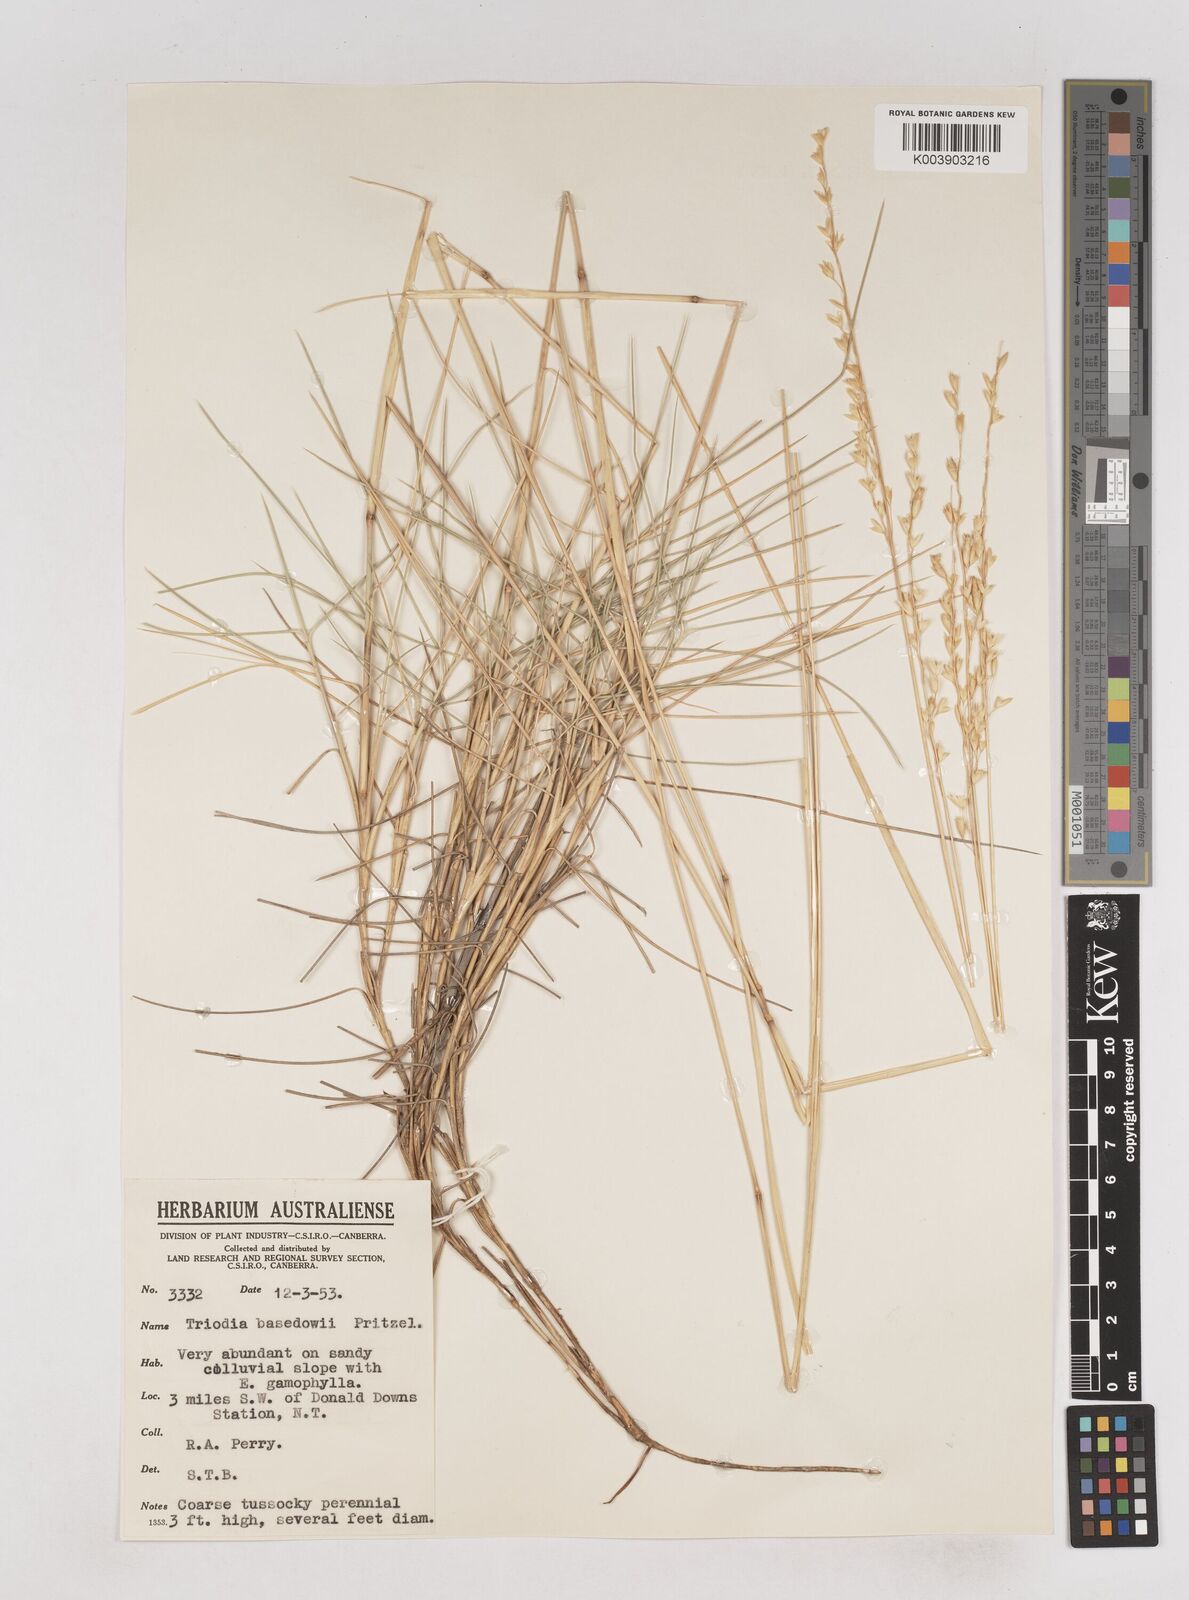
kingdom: Plantae
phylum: Tracheophyta
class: Liliopsida
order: Poales
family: Poaceae
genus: Triodia
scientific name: Triodia basedowii
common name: Hard spinifex
